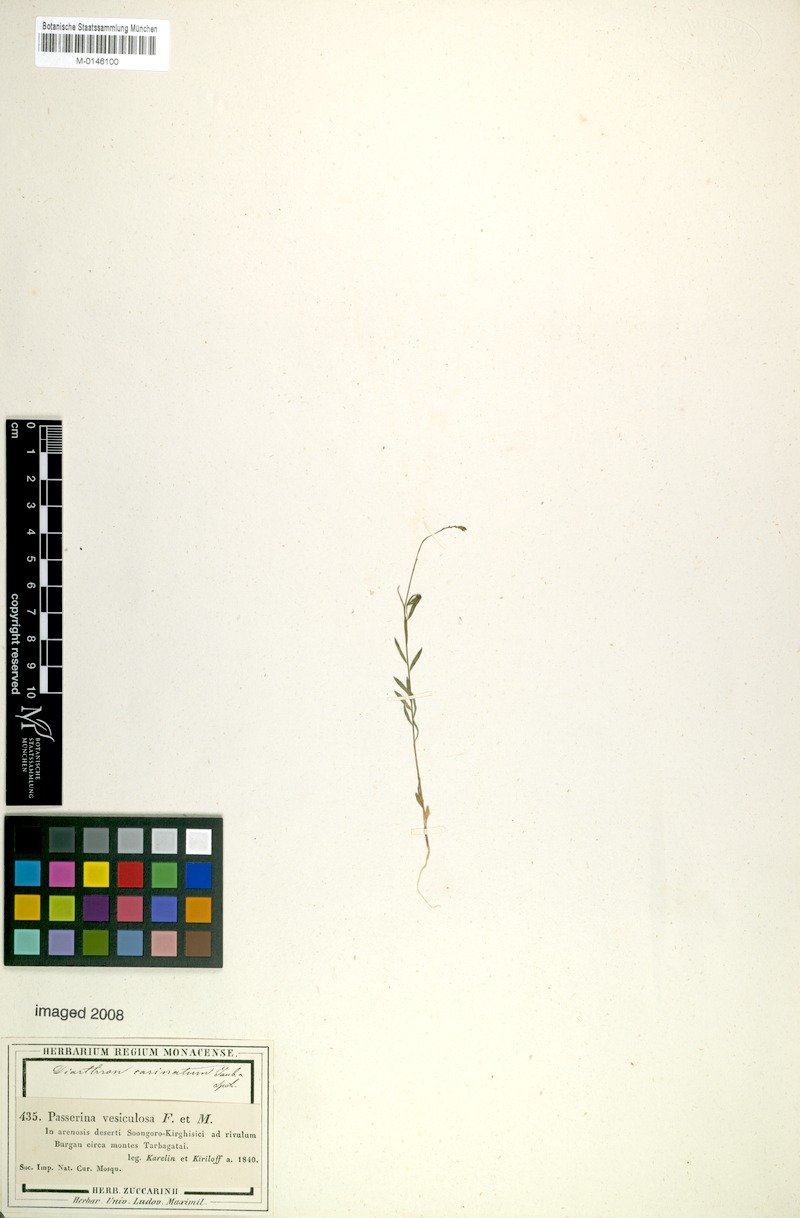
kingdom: Plantae
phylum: Tracheophyta
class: Magnoliopsida
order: Malvales
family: Thymelaeaceae
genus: Diarthron
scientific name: Diarthron vesiculosum
